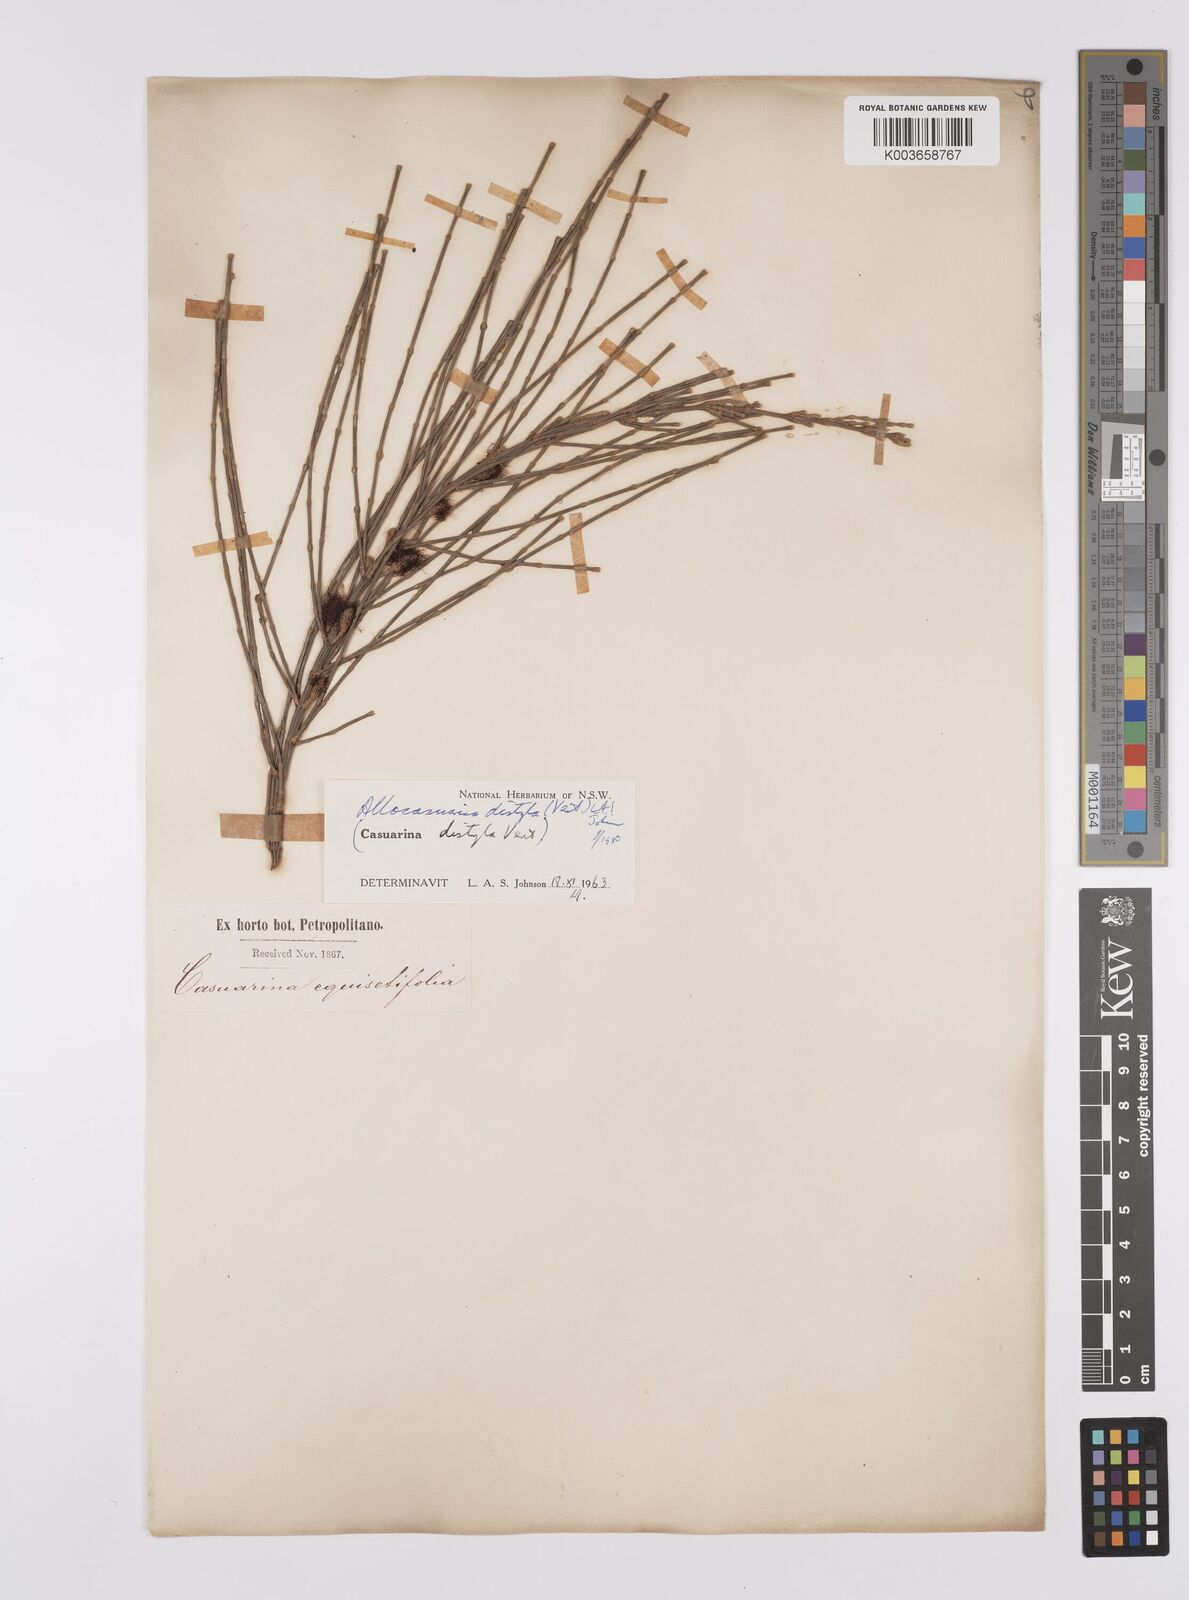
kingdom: Plantae
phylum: Tracheophyta
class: Magnoliopsida
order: Fagales
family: Casuarinaceae
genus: Allocasuarina
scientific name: Allocasuarina distyla
